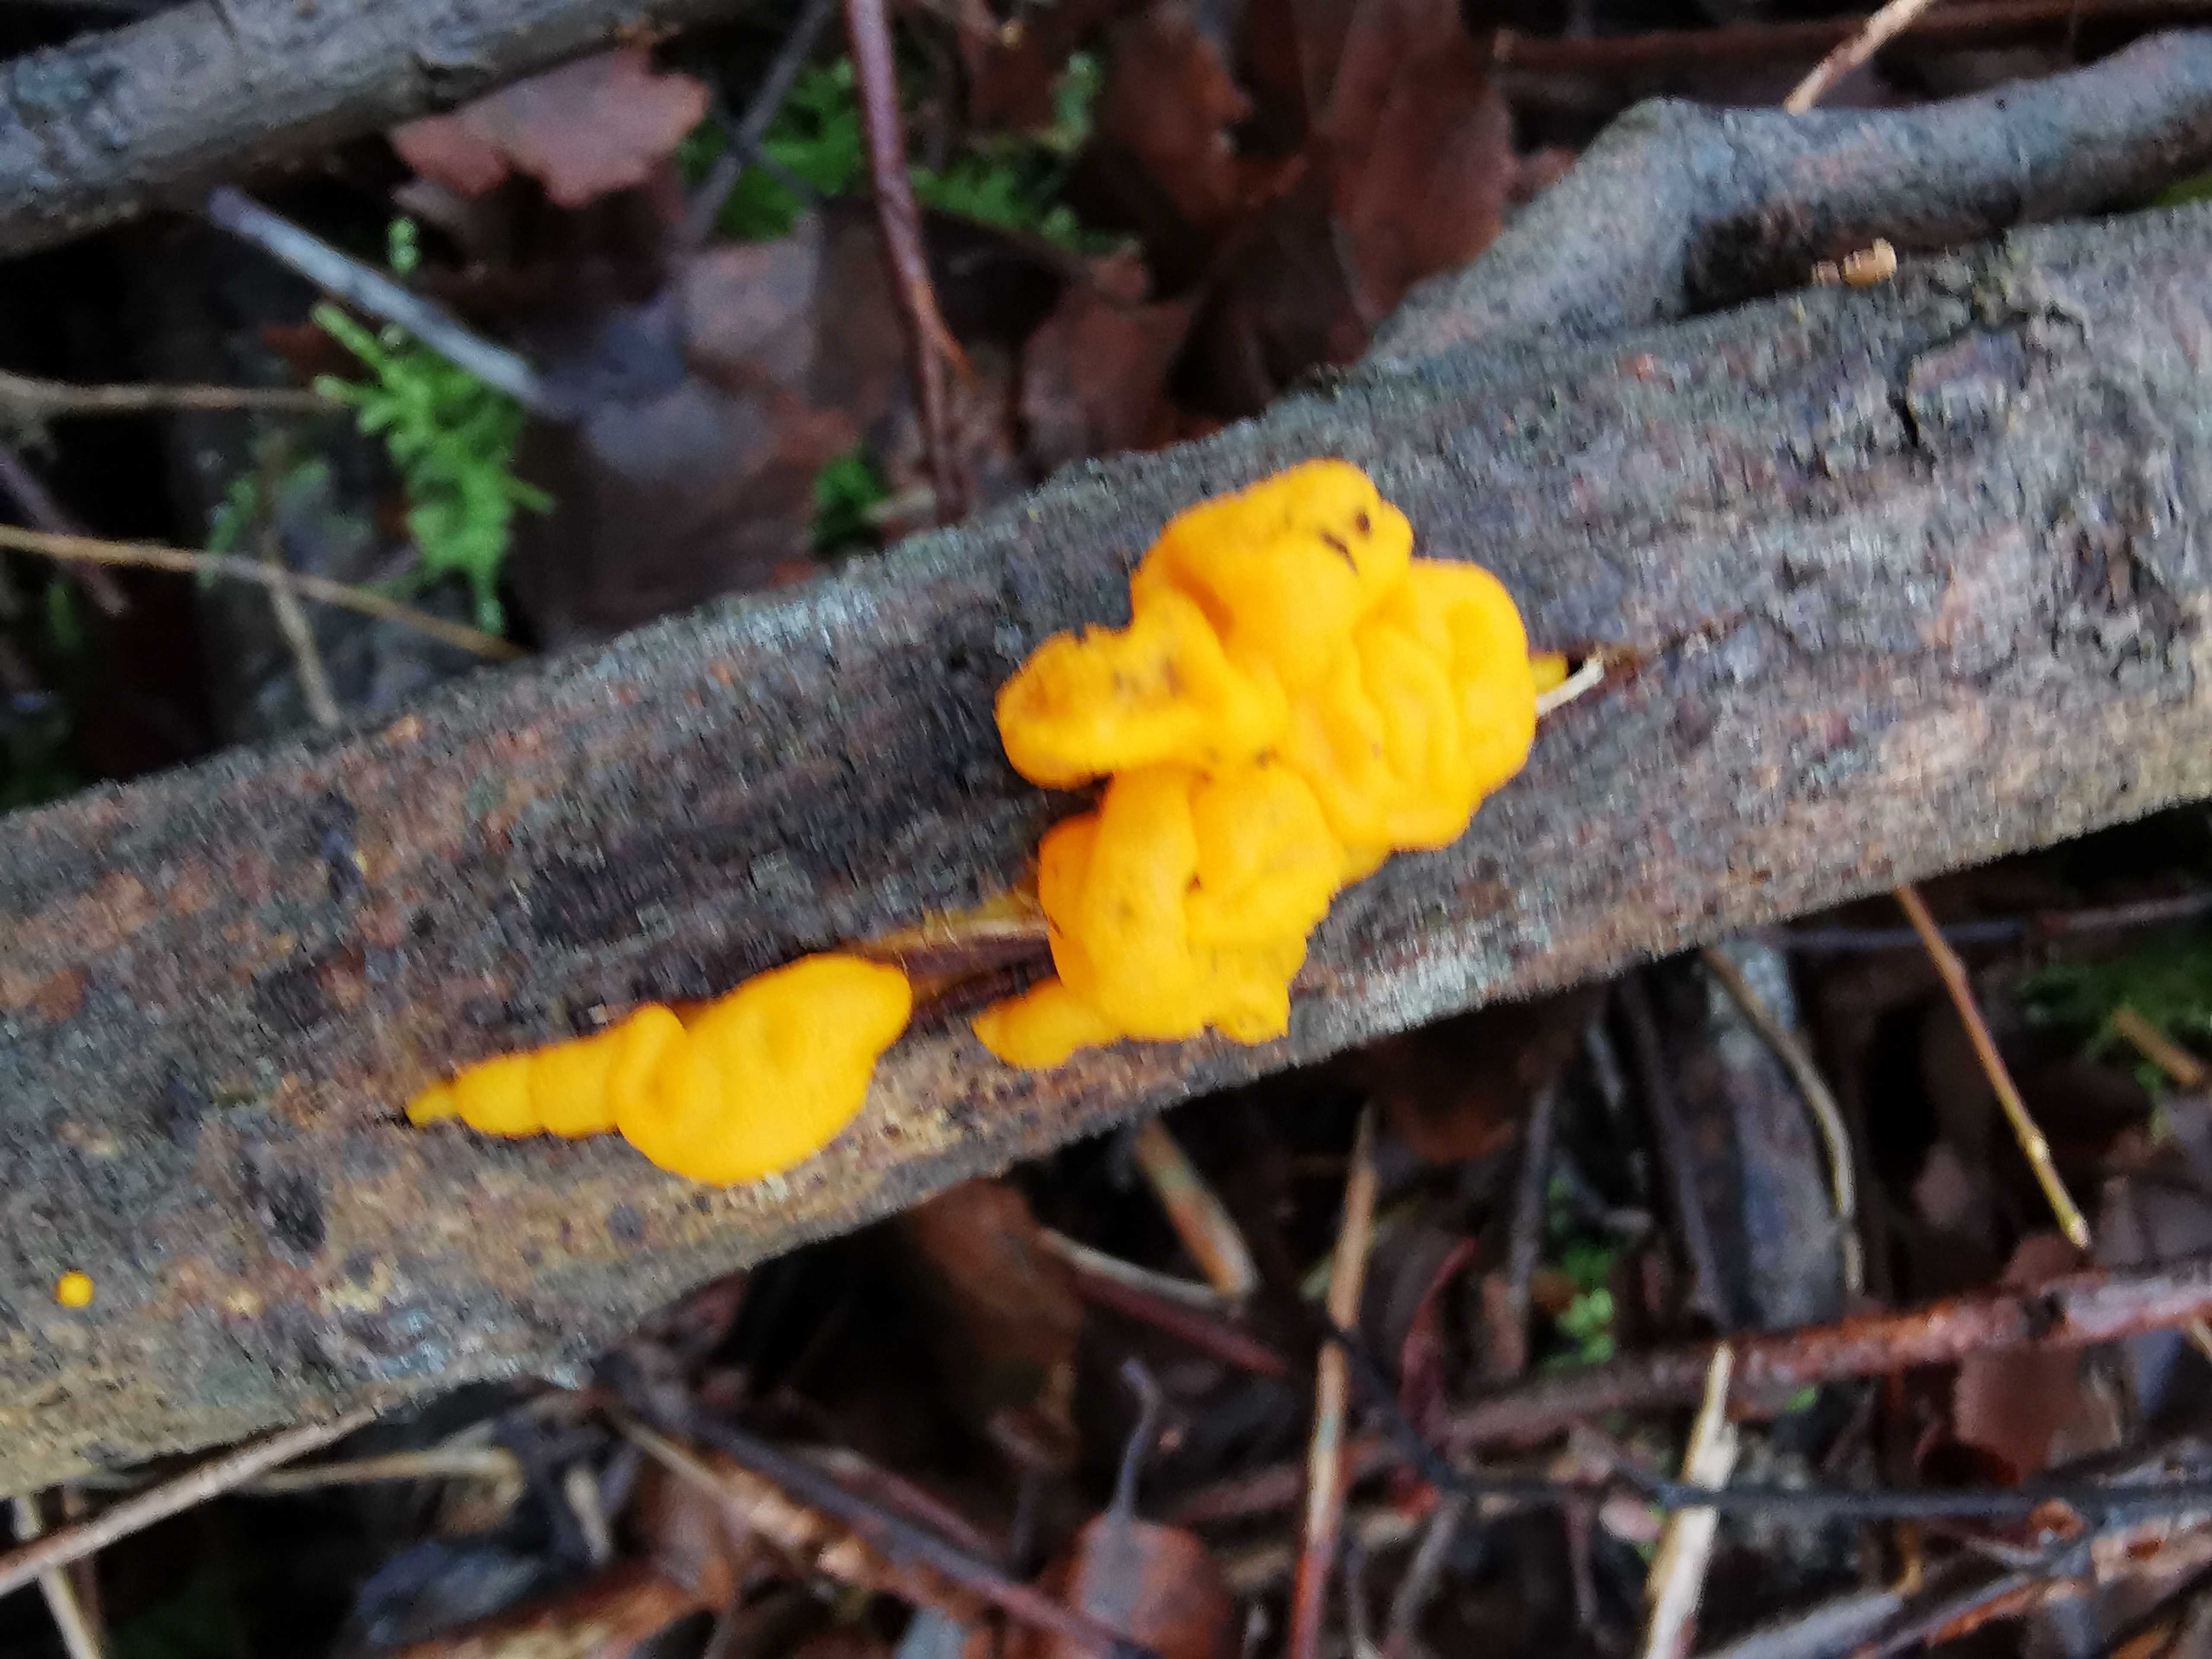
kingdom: Fungi
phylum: Basidiomycota
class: Tremellomycetes
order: Tremellales
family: Tremellaceae
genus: Tremella
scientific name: Tremella mesenterica
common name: gul bævresvamp
